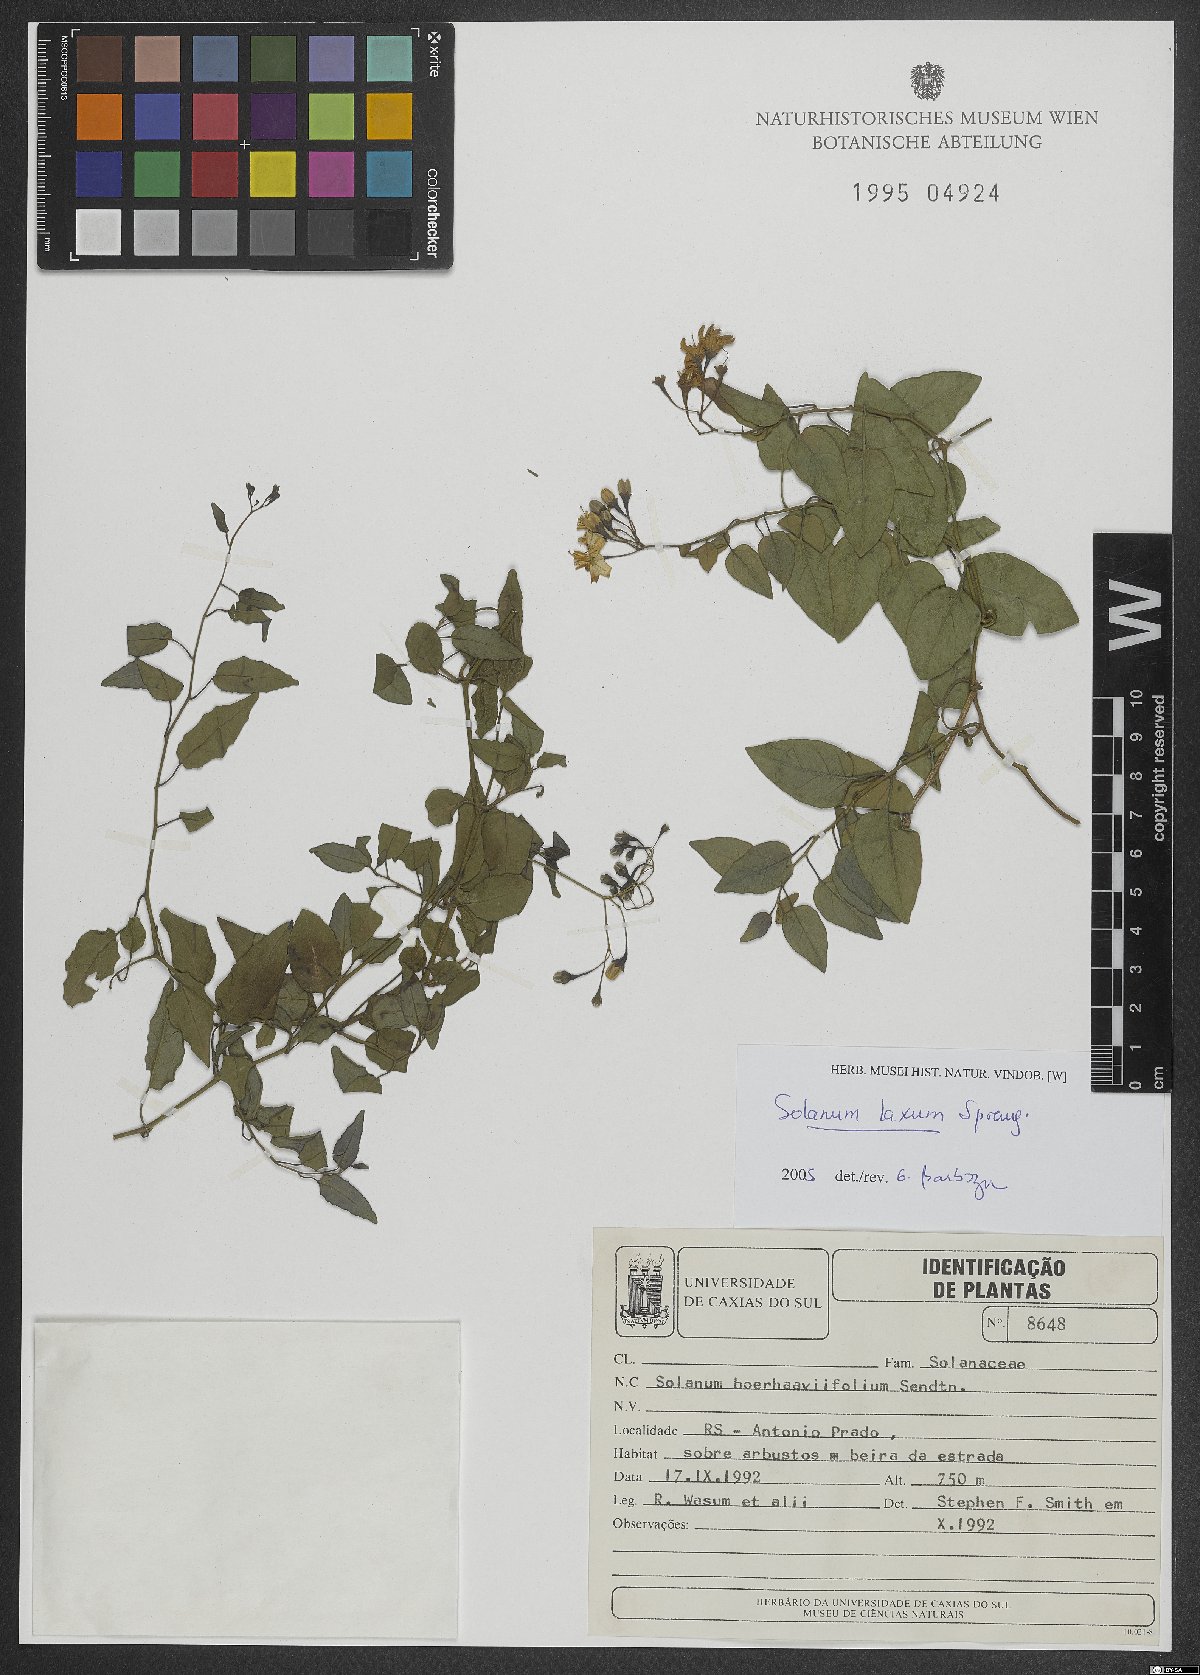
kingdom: Plantae
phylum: Tracheophyta
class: Magnoliopsida
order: Solanales
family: Solanaceae
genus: Solanum
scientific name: Solanum laxum
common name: Nightshade
